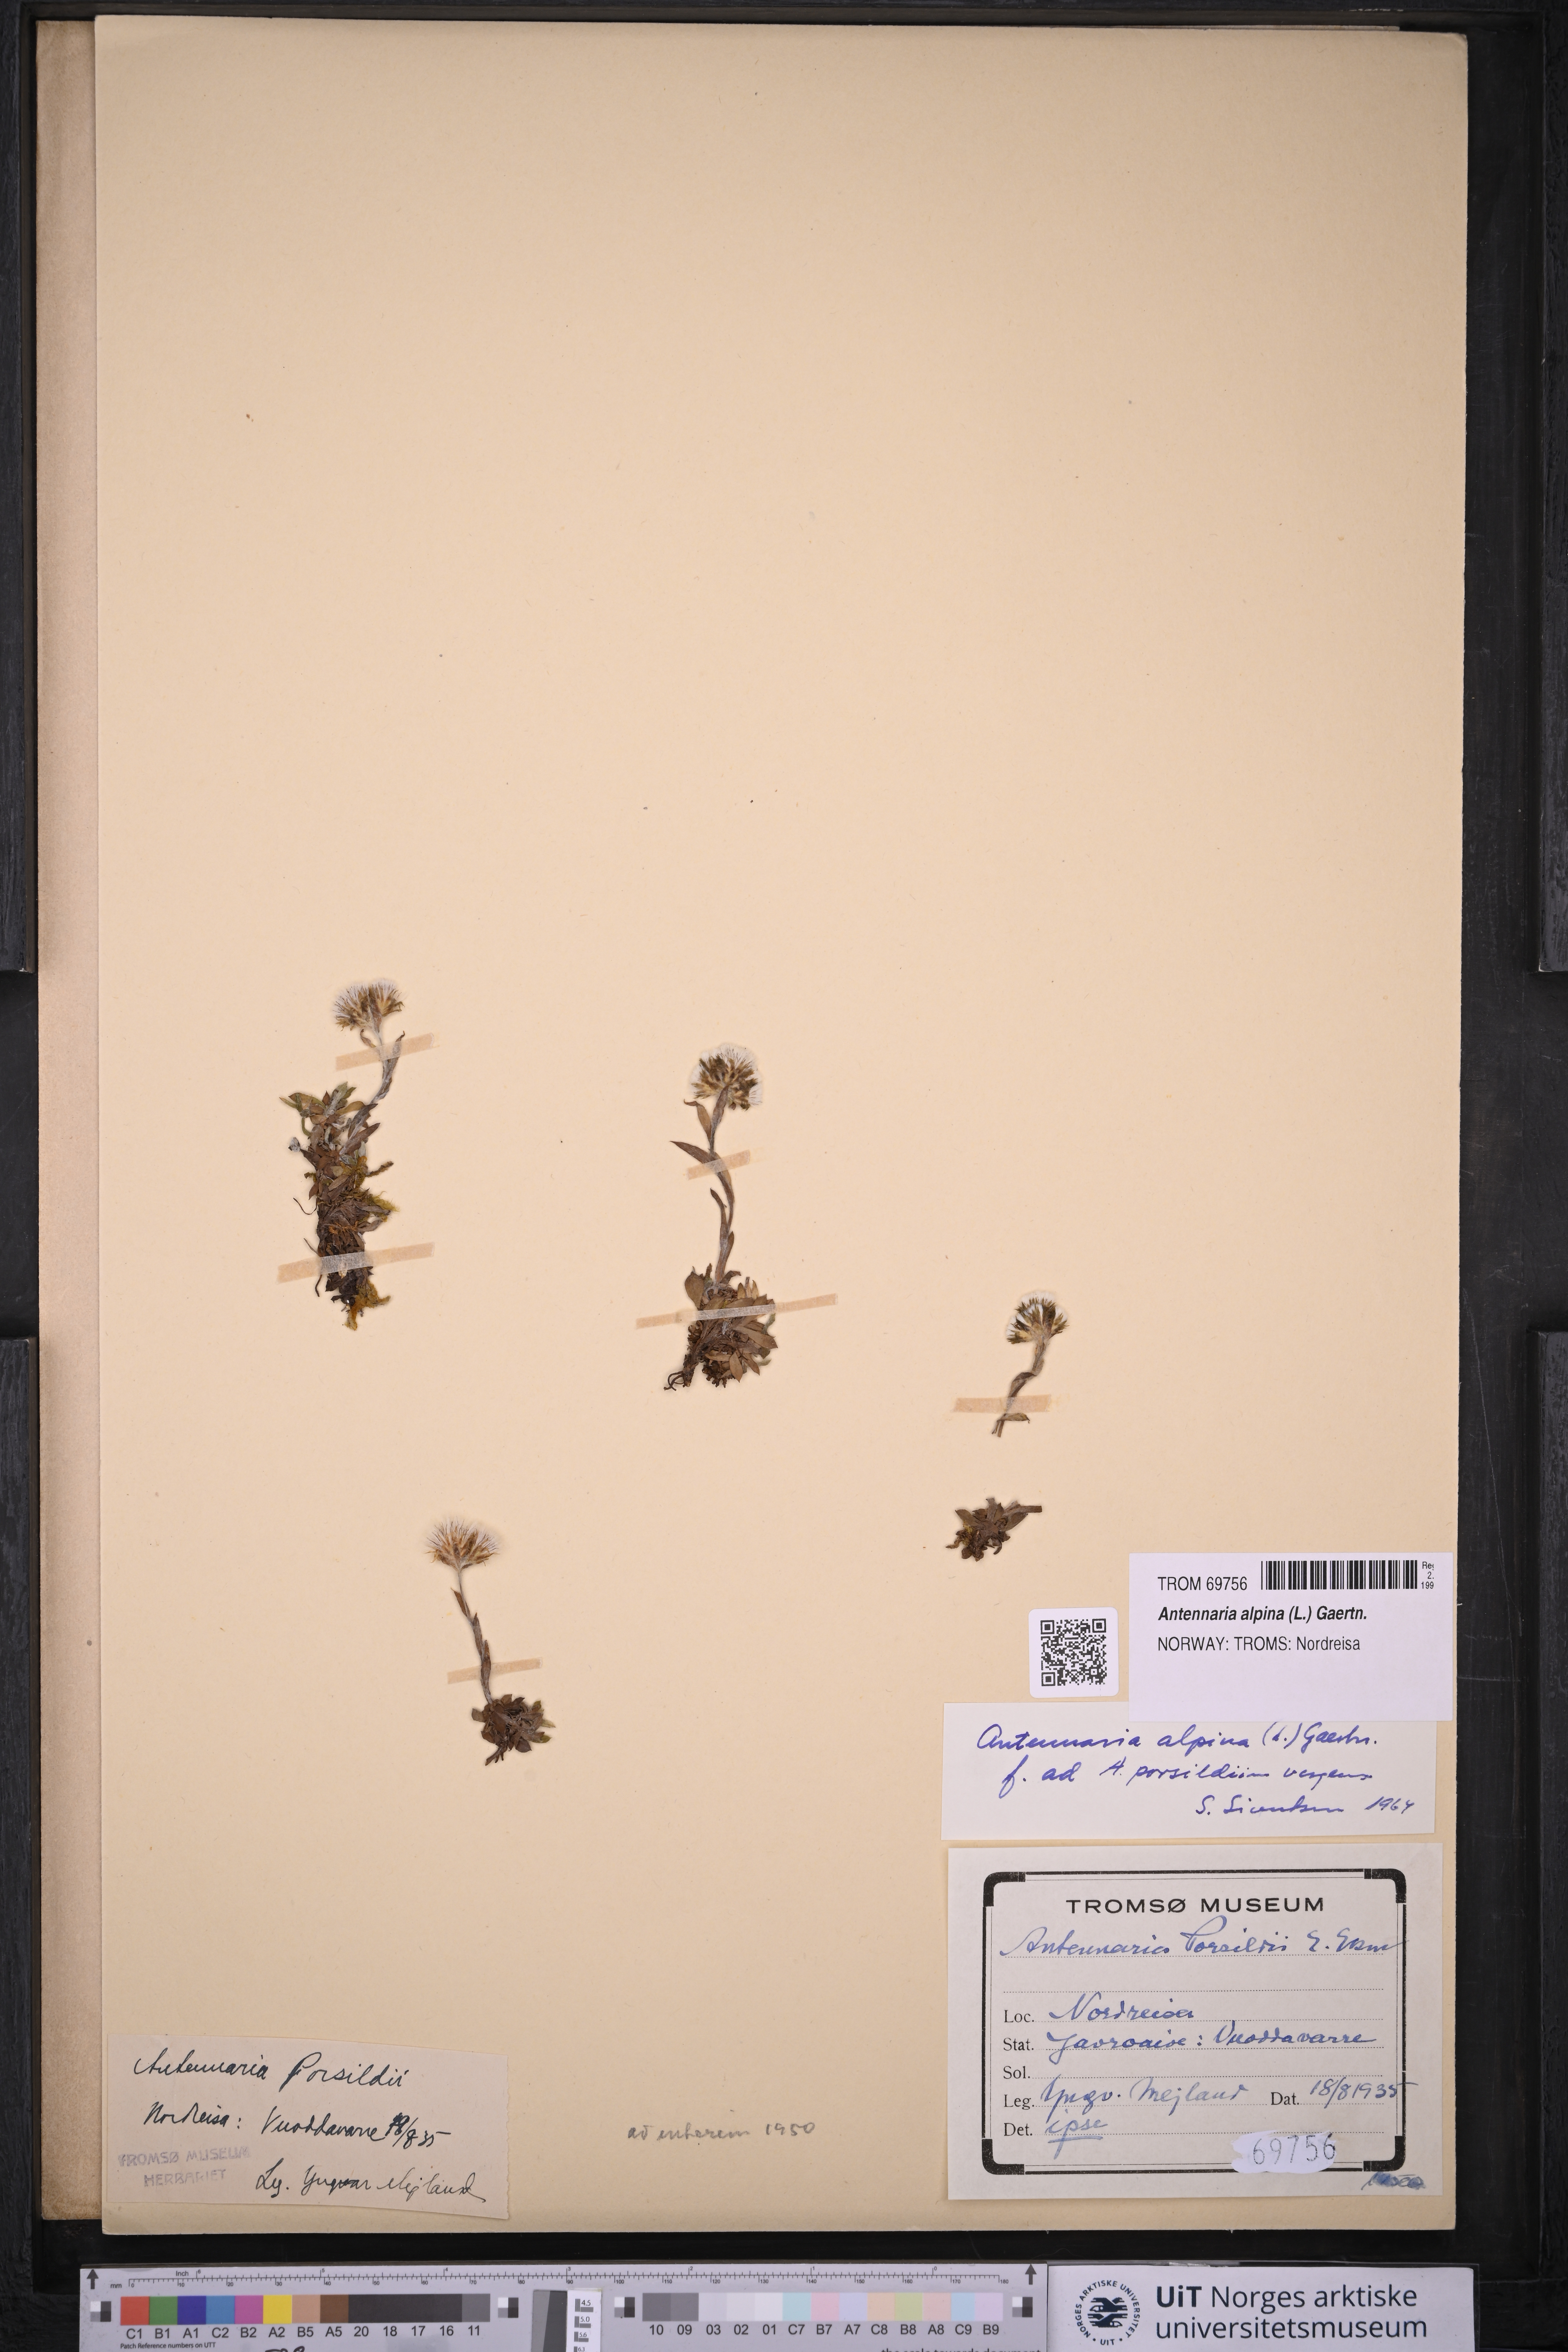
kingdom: Plantae
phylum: Tracheophyta
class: Magnoliopsida
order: Asterales
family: Asteraceae
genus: Antennaria
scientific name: Antennaria alpina
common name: Alpine pussytoes
